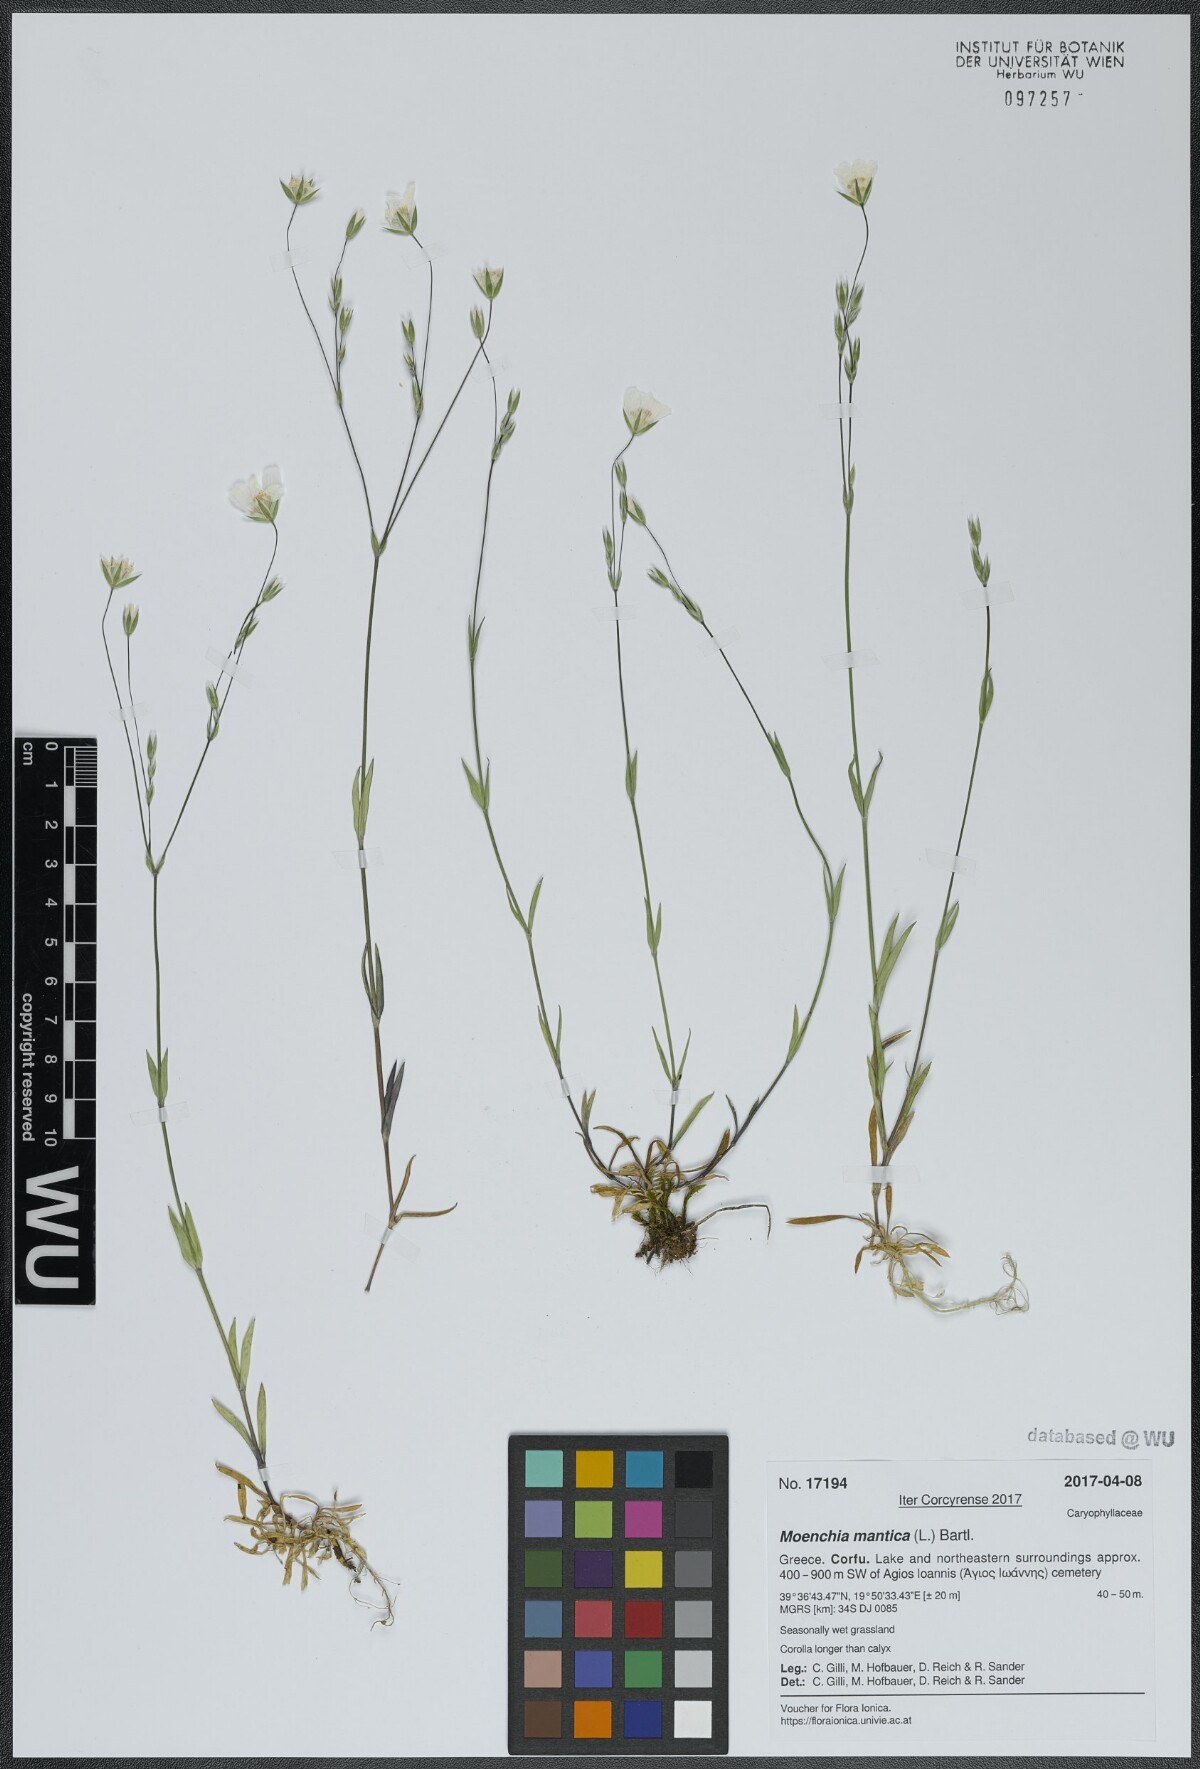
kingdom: Plantae
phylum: Tracheophyta
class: Magnoliopsida
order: Caryophyllales
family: Caryophyllaceae
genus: Moenchia
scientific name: Moenchia mantica
